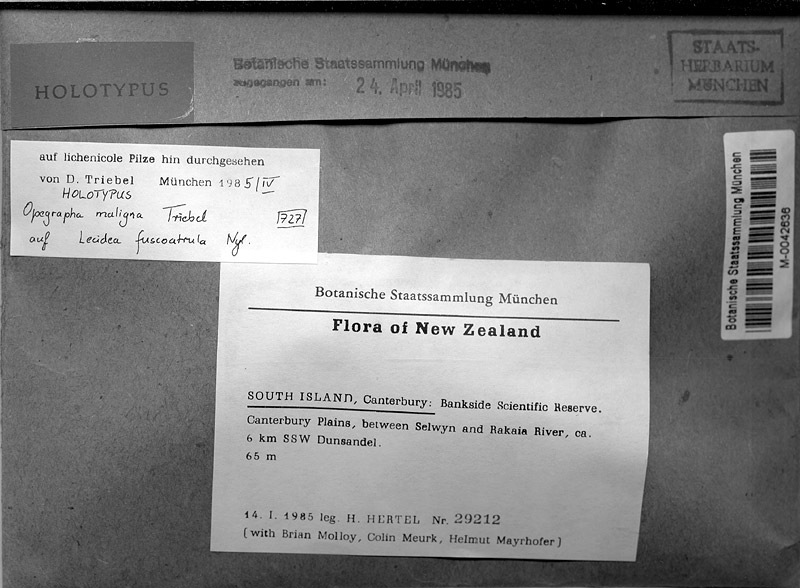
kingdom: Fungi
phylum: Ascomycota
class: Lecanoromycetes
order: Lecideales
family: Lecideaceae
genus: Lecidea
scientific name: Lecidea fuscoatrula
